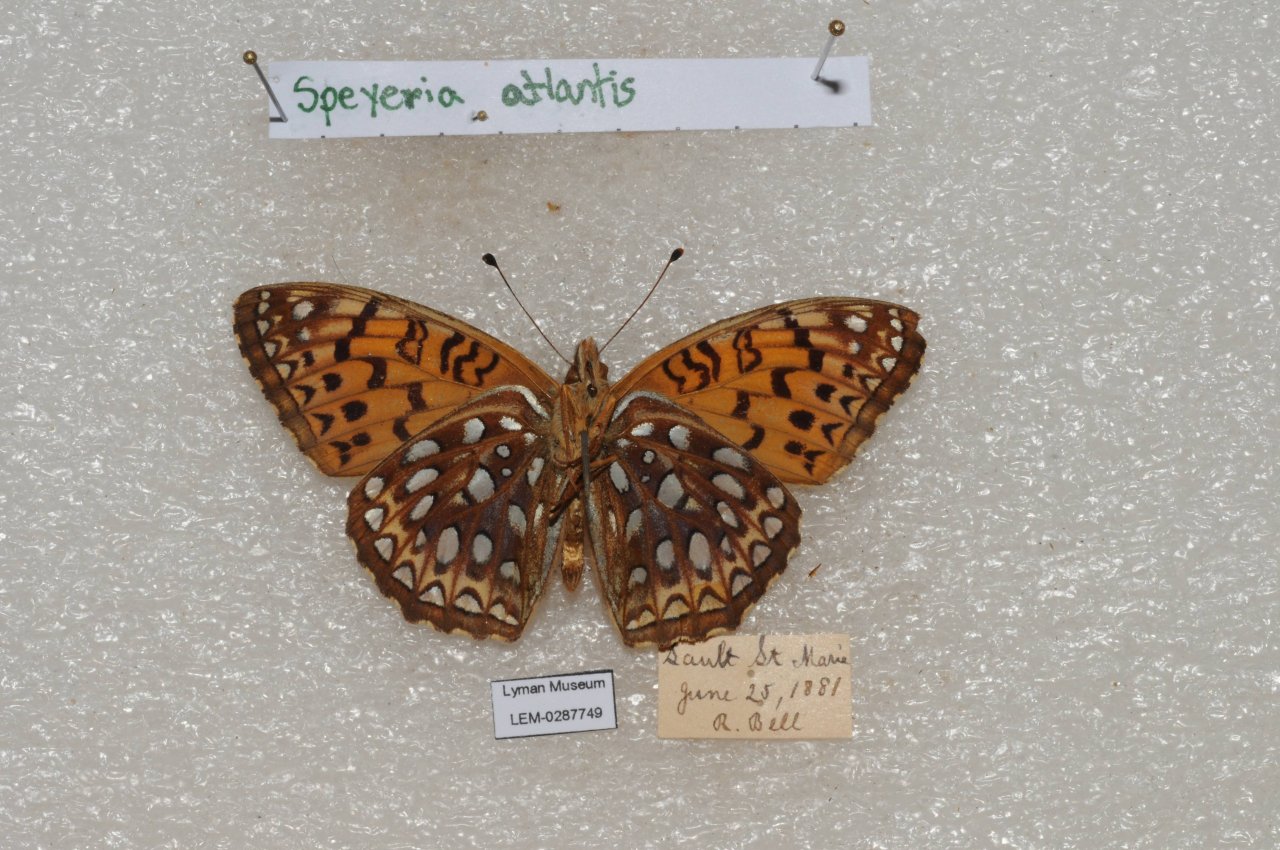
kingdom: Animalia
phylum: Arthropoda
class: Insecta
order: Lepidoptera
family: Nymphalidae
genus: Speyeria
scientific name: Speyeria atlantis
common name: Atlantis Fritillary
